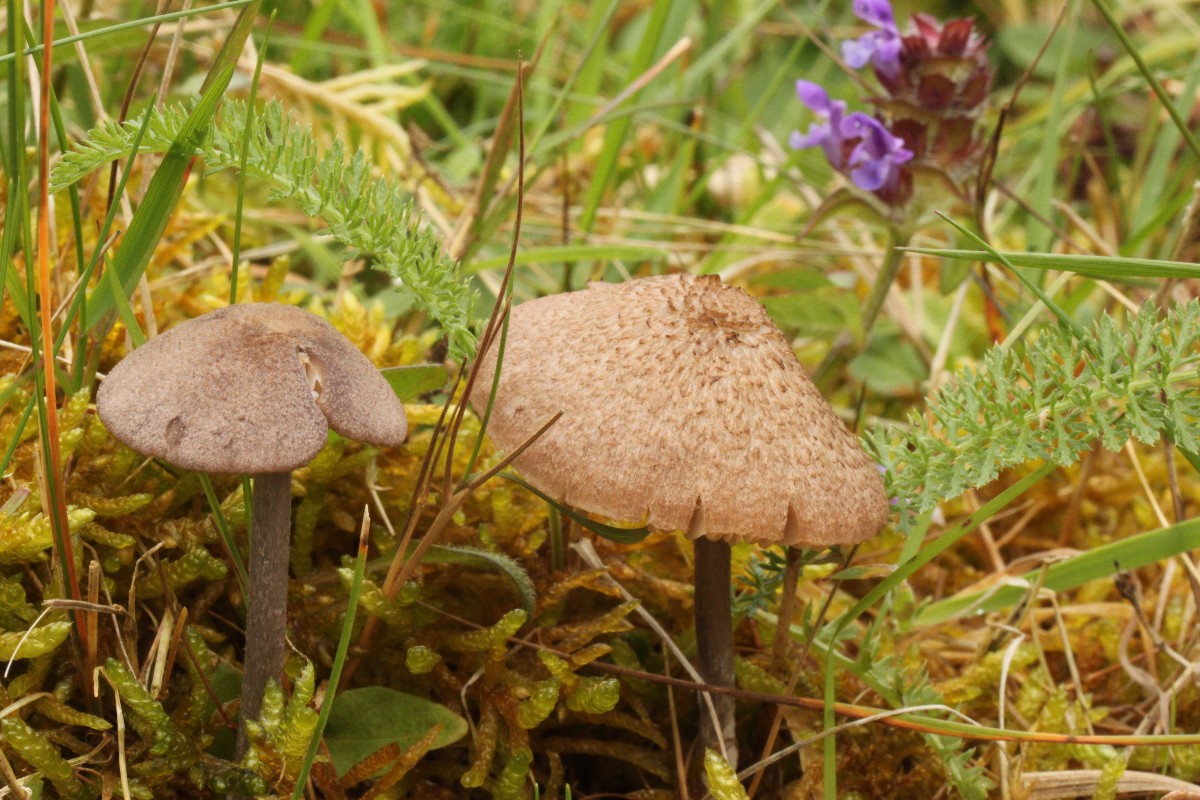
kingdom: Fungi
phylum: Basidiomycota
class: Agaricomycetes
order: Agaricales
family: Entolomataceae
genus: Entoloma
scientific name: Entoloma griseocyaneum
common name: gråblå rødblad
